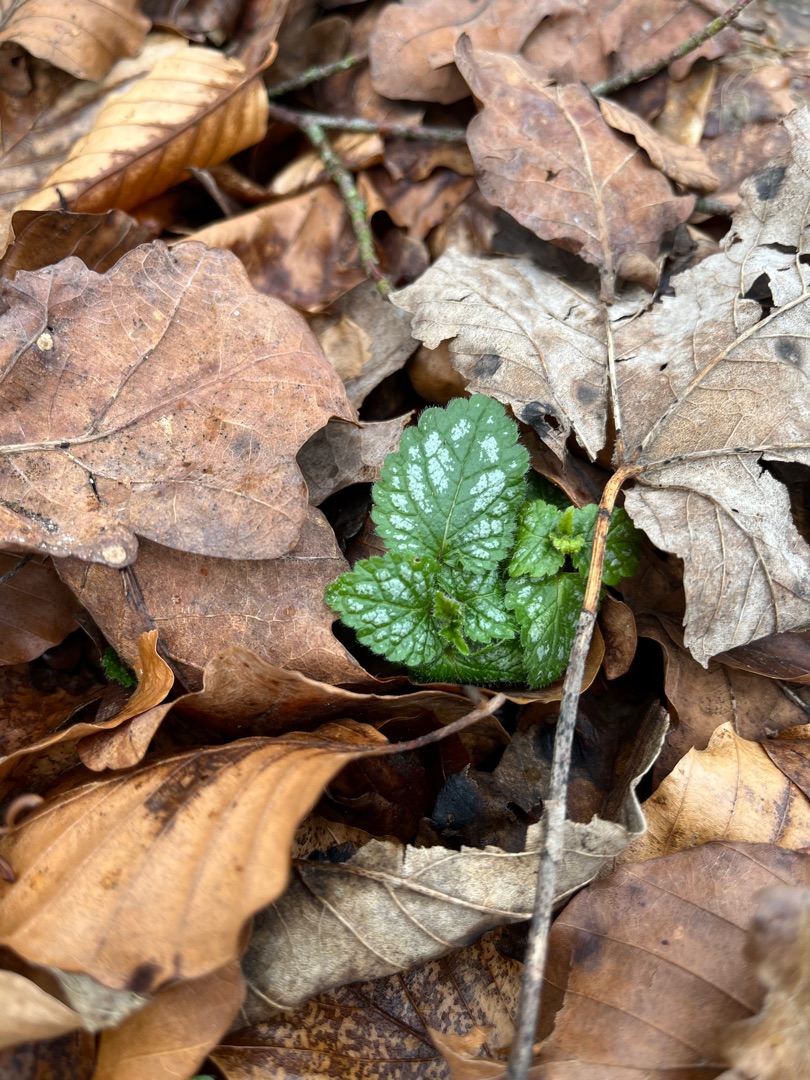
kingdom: Plantae
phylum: Tracheophyta
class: Magnoliopsida
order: Lamiales
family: Lamiaceae
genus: Lamium
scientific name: Lamium galeobdolon
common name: Guldnælde
